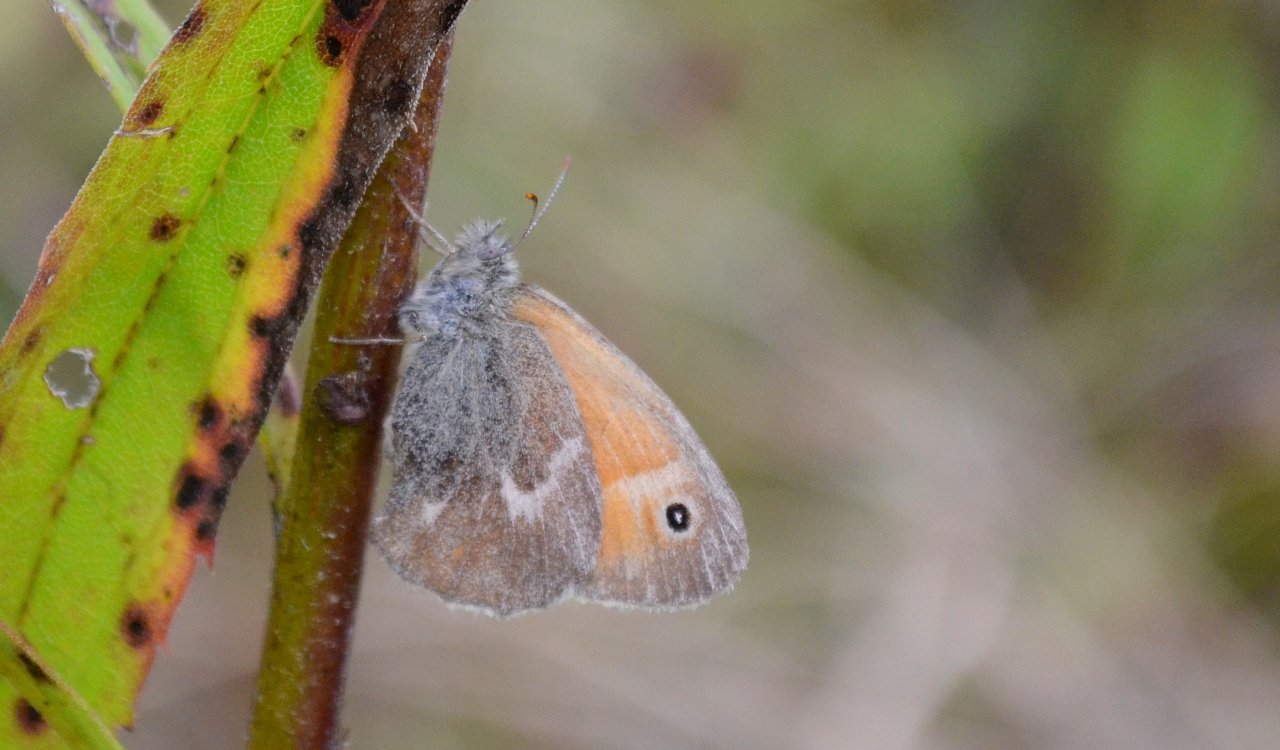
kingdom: Animalia
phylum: Arthropoda
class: Insecta
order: Lepidoptera
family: Nymphalidae
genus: Coenonympha
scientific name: Coenonympha tullia
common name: Large Heath
